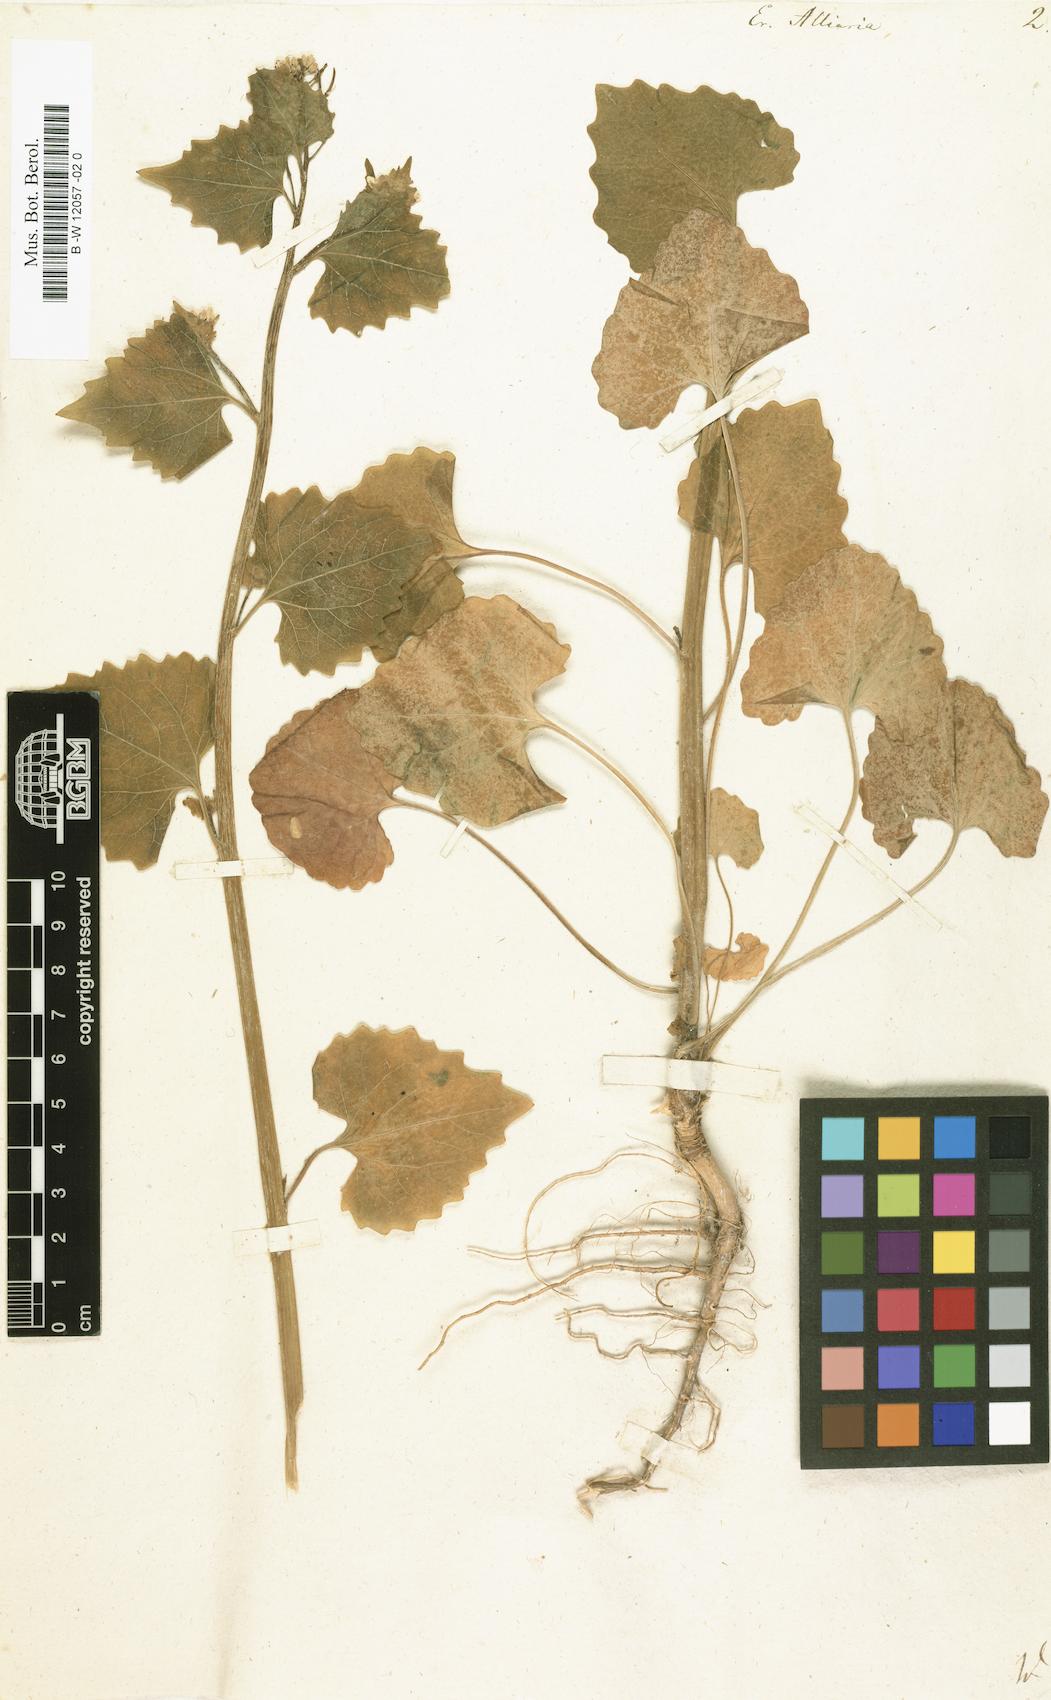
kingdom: Plantae
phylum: Tracheophyta
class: Magnoliopsida
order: Brassicales
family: Brassicaceae
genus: Alliaria
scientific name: Alliaria petiolata
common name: Garlic mustard
